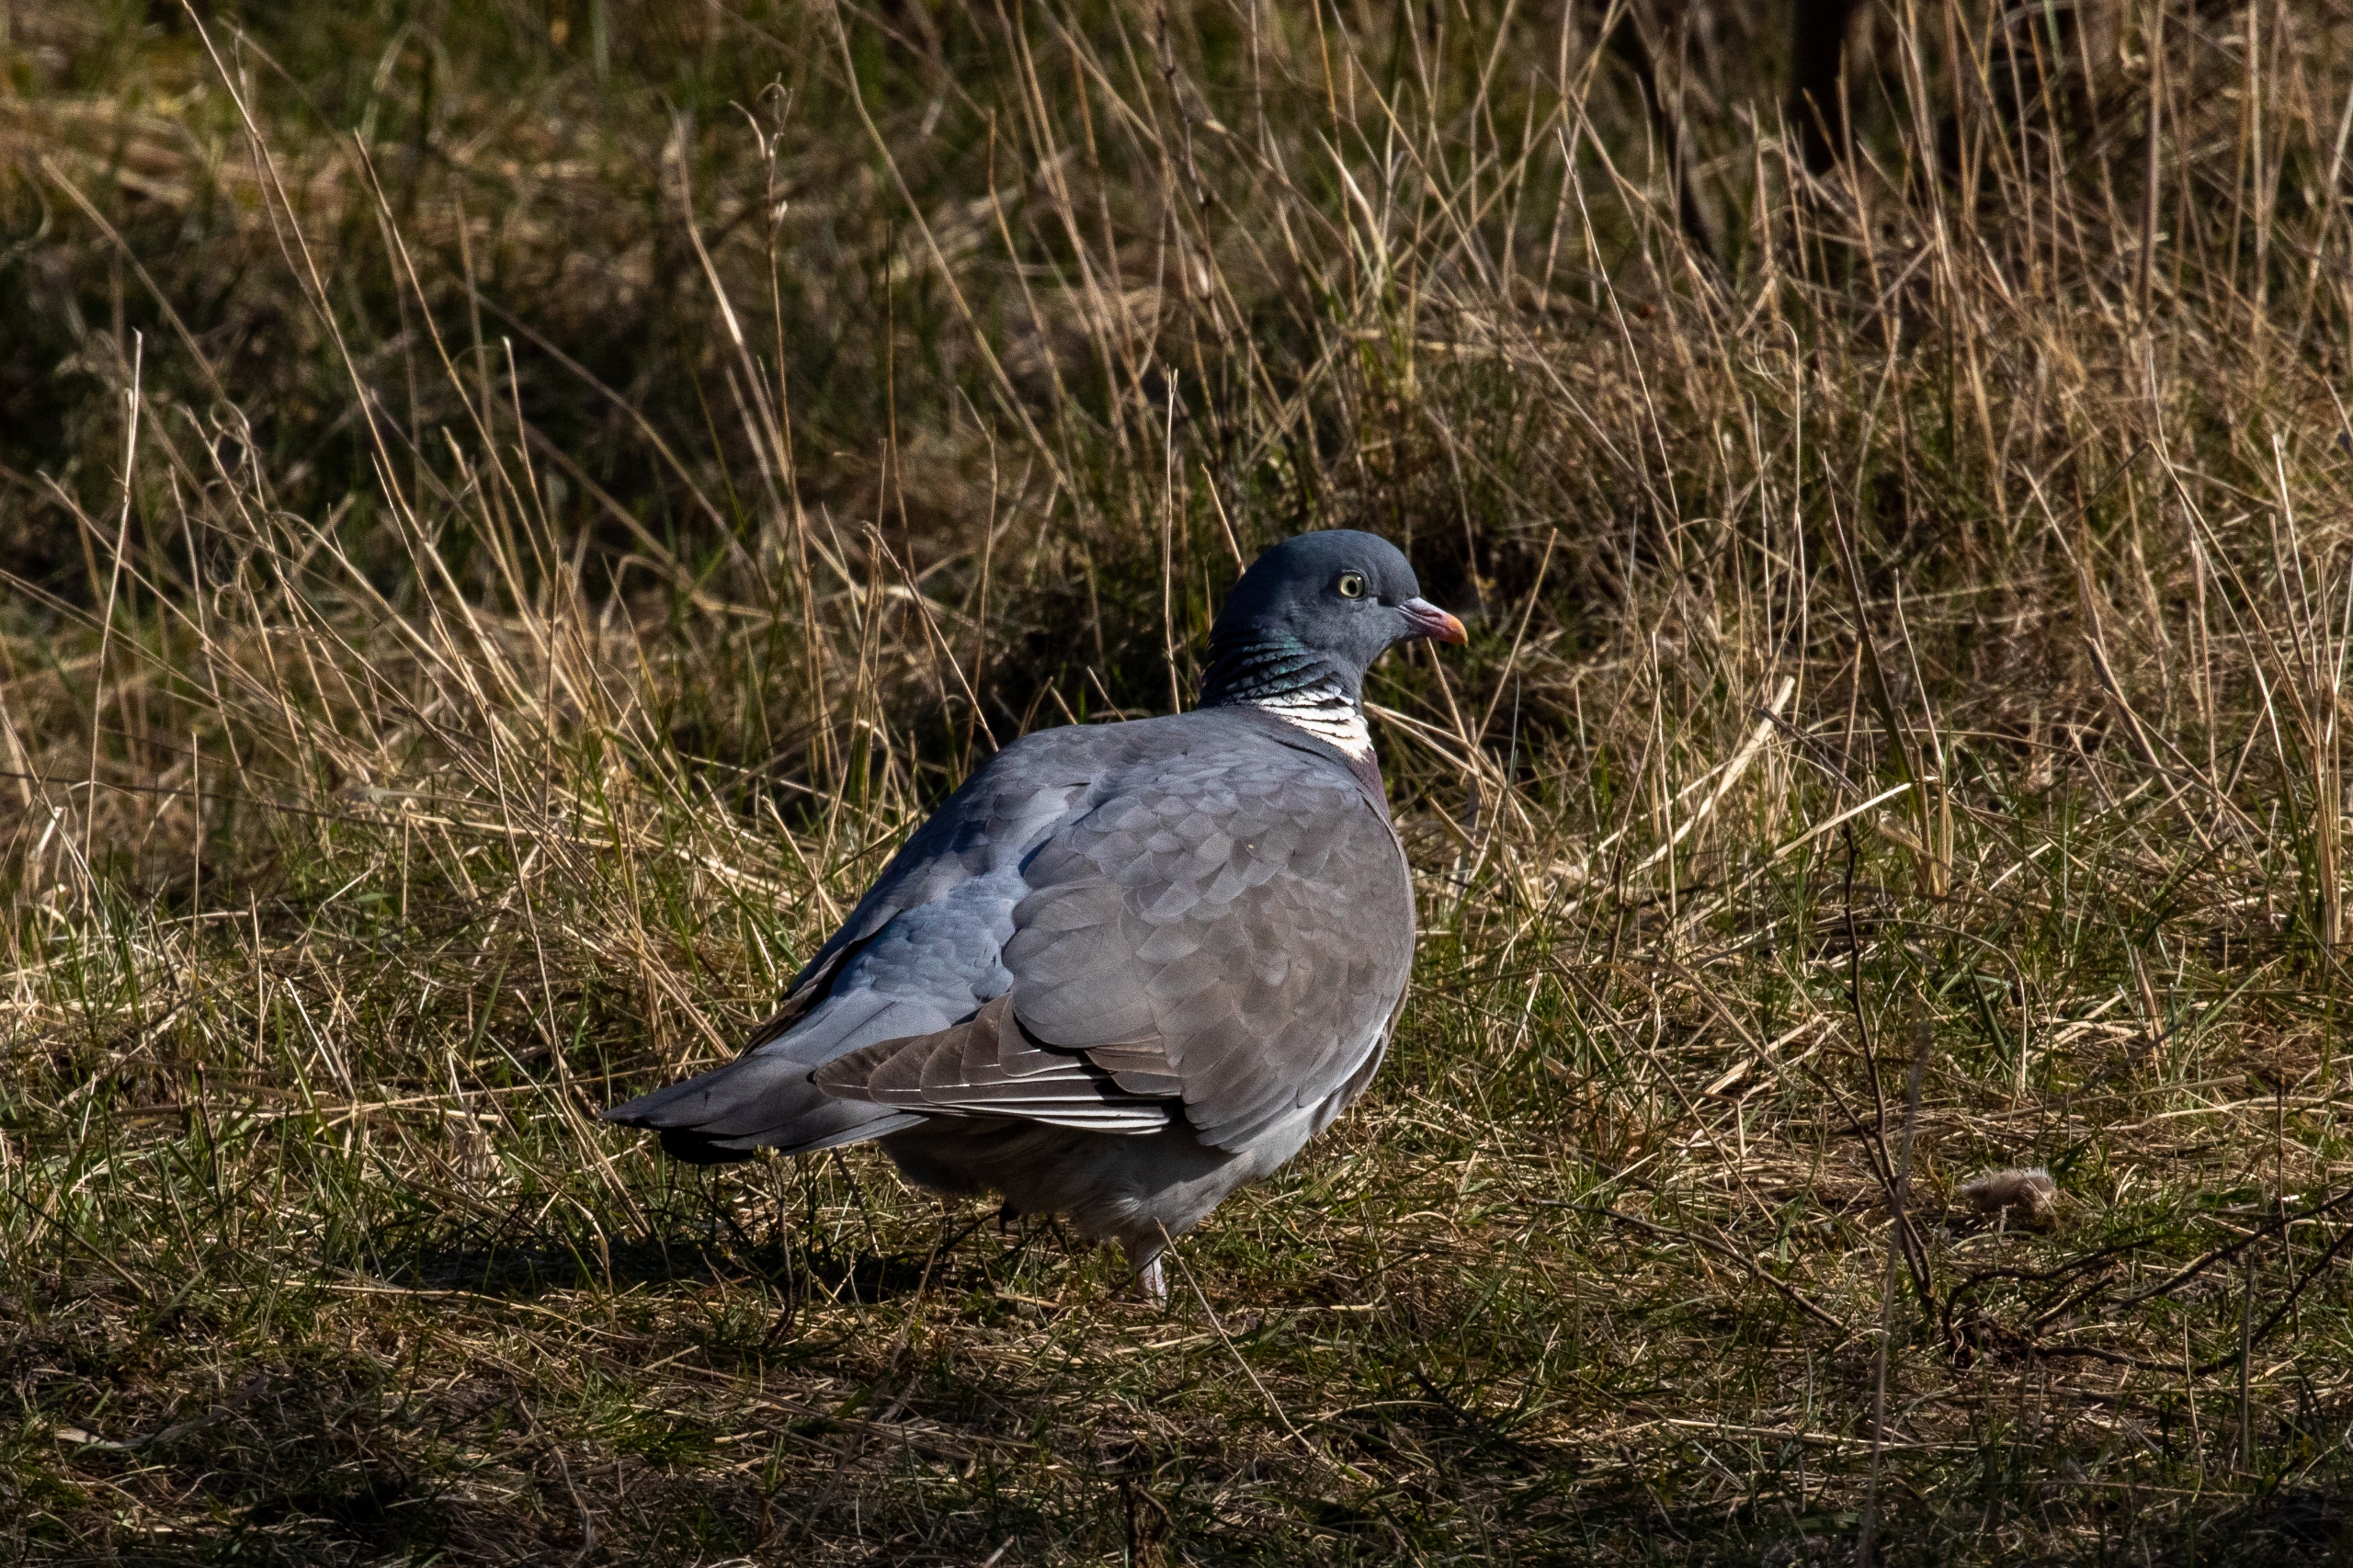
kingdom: Animalia
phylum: Chordata
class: Aves
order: Columbiformes
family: Columbidae
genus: Columba
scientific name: Columba palumbus
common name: Ringdue
